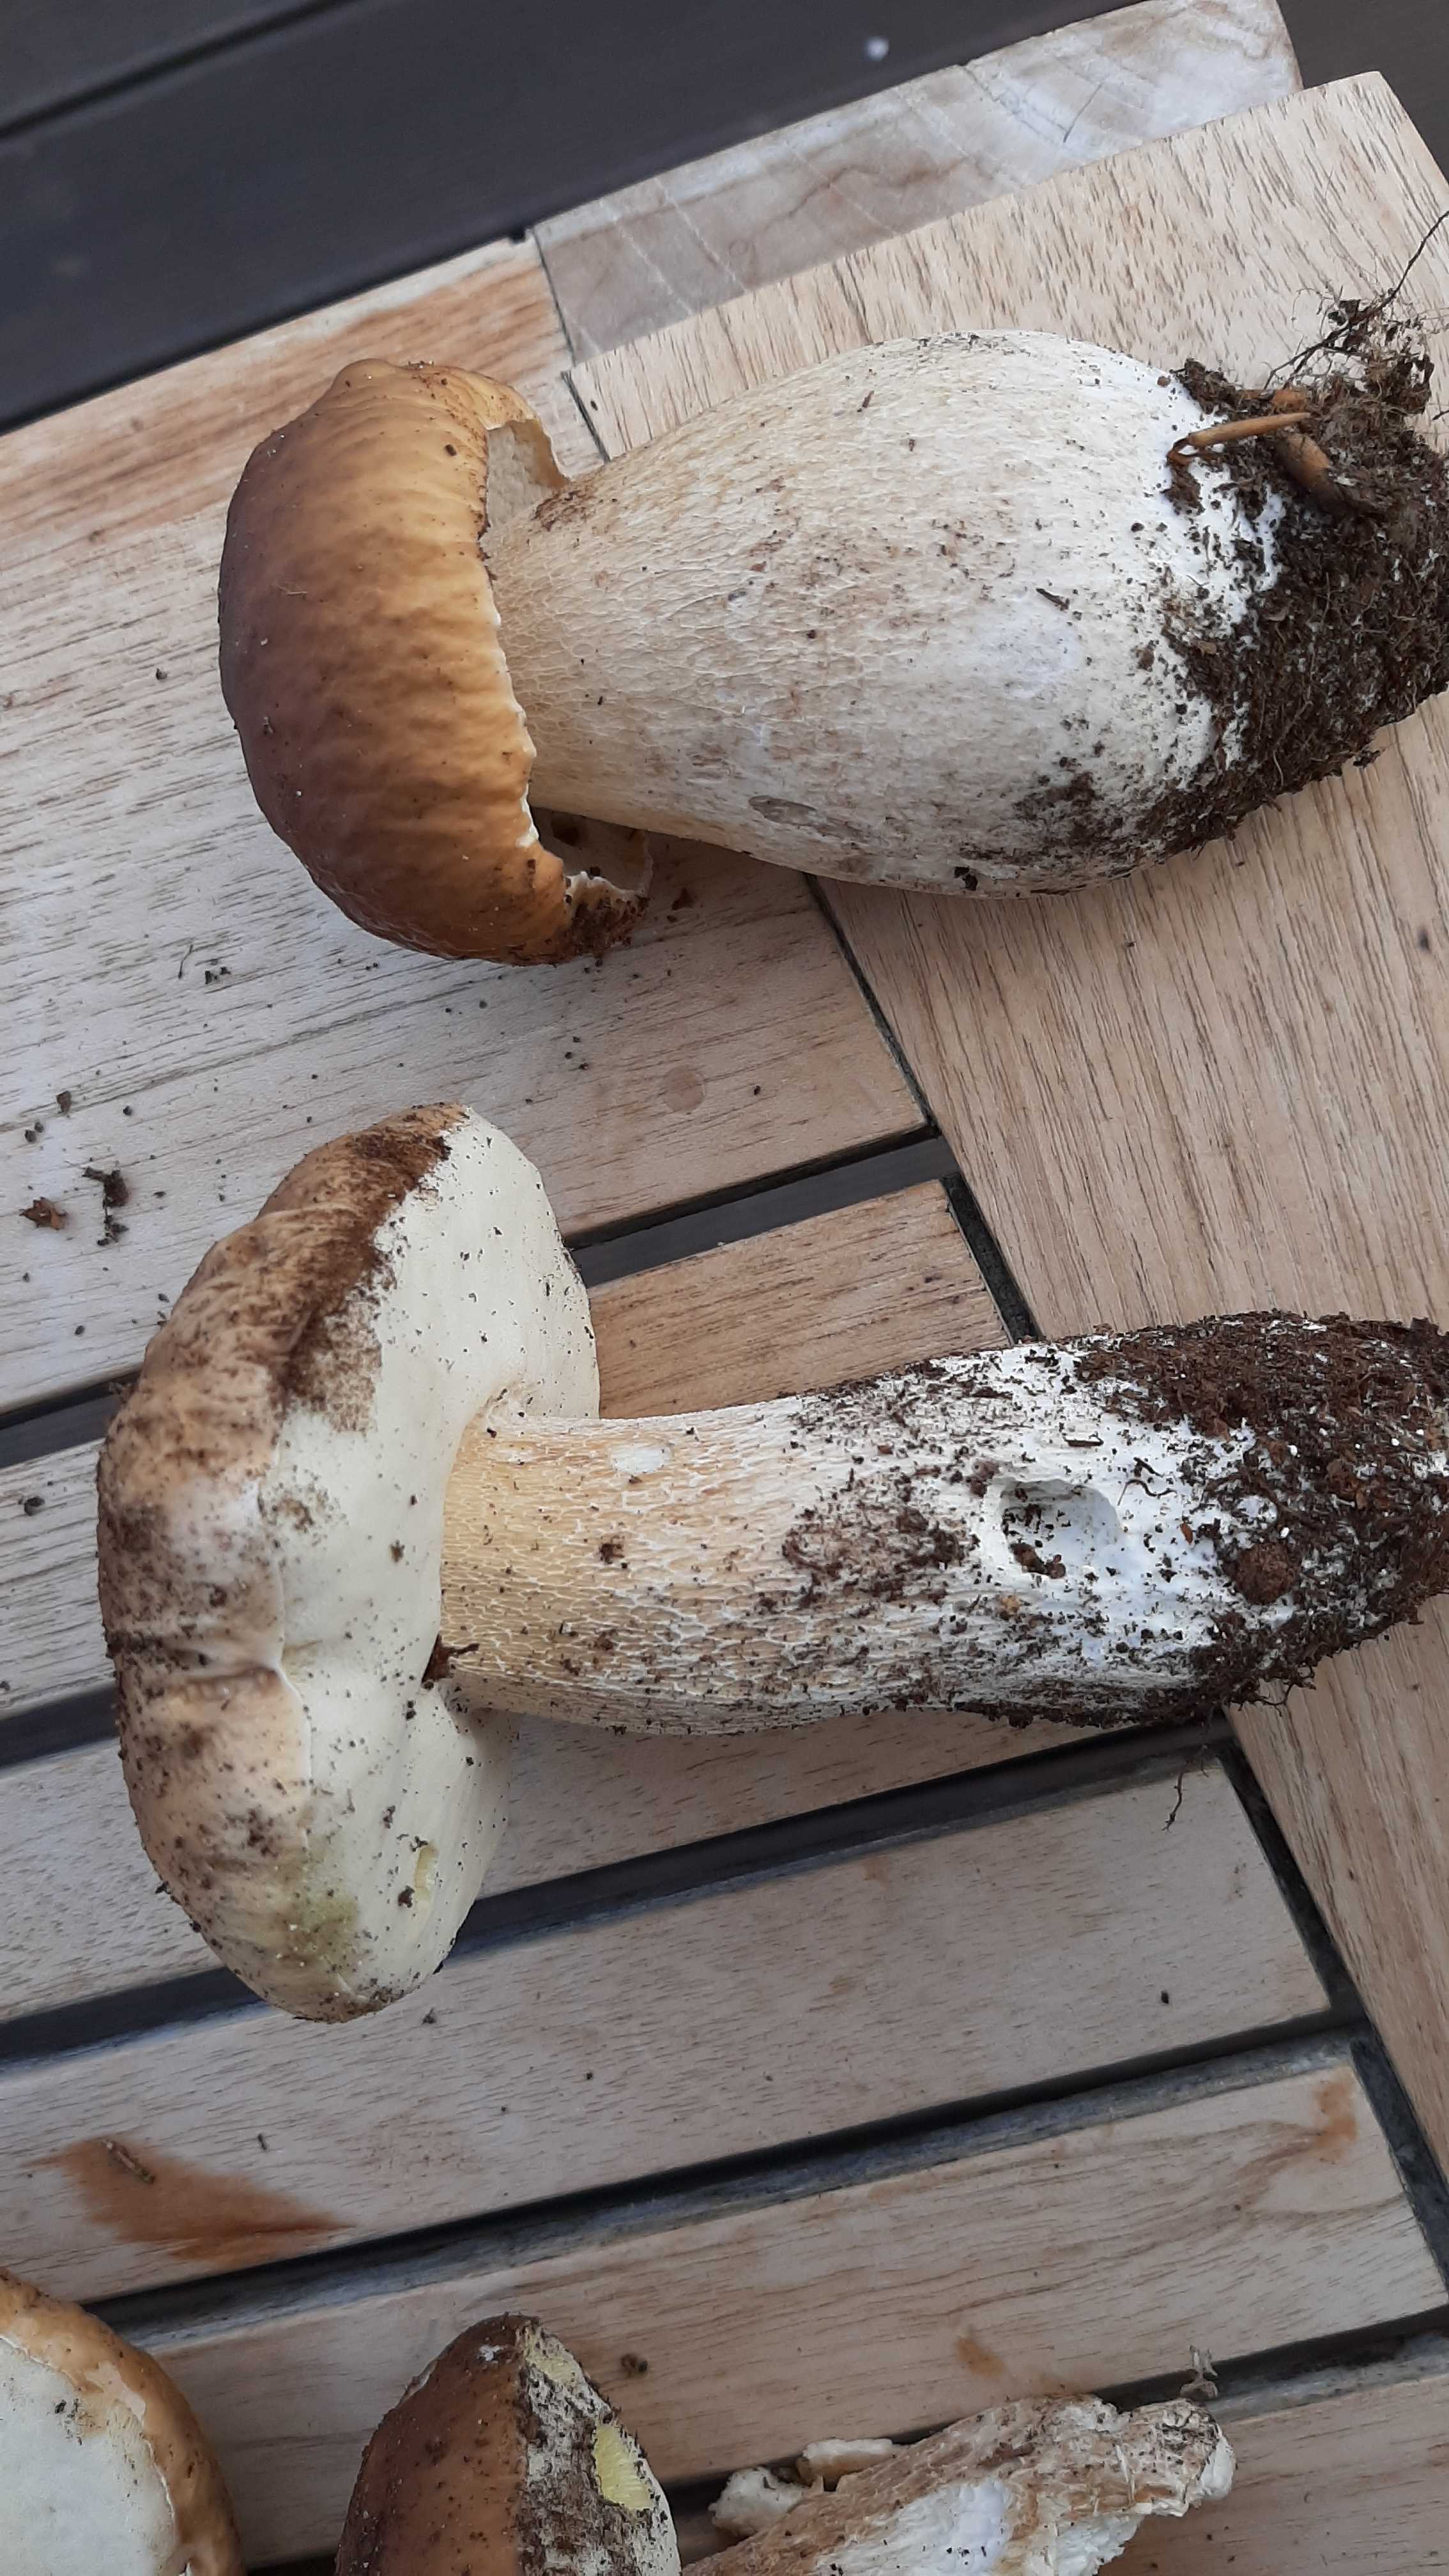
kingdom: Fungi
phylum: Basidiomycota
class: Agaricomycetes
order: Boletales
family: Boletaceae
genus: Boletus
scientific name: Boletus edulis
